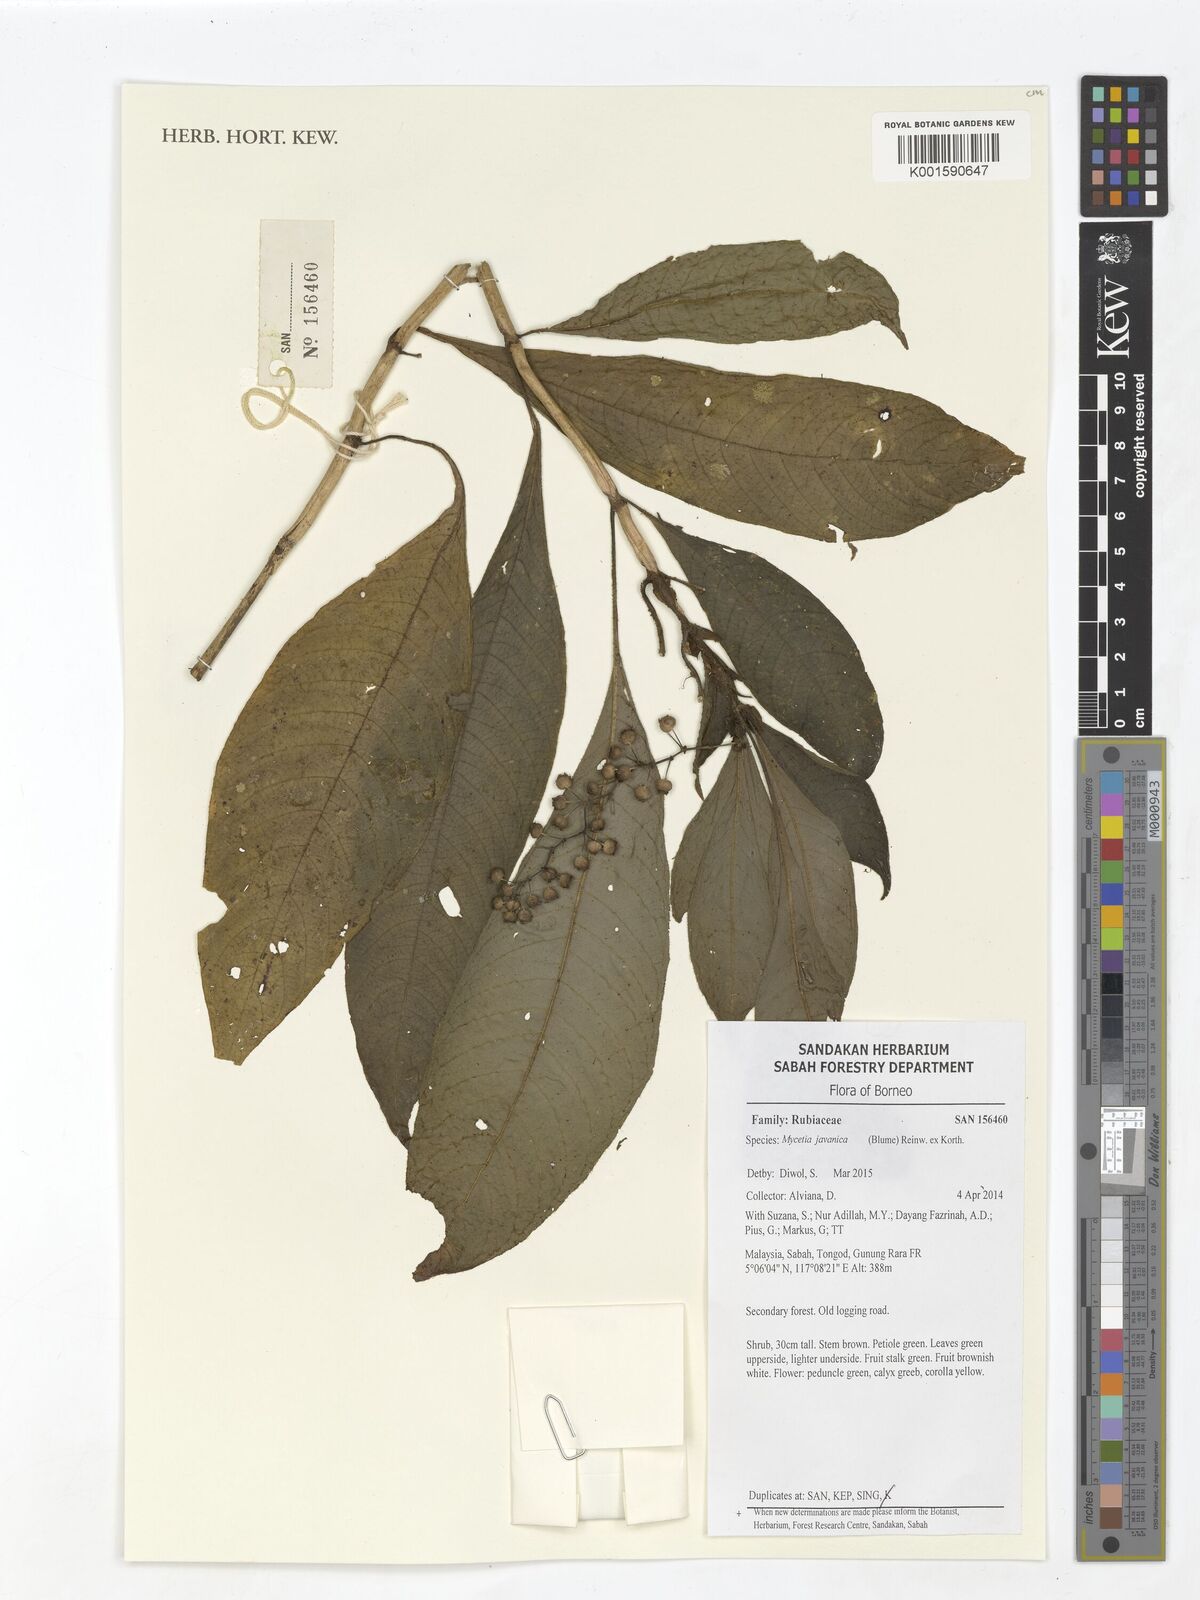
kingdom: Plantae
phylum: Tracheophyta
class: Magnoliopsida
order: Gentianales
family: Rubiaceae
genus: Mycetia
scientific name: Mycetia javanica
